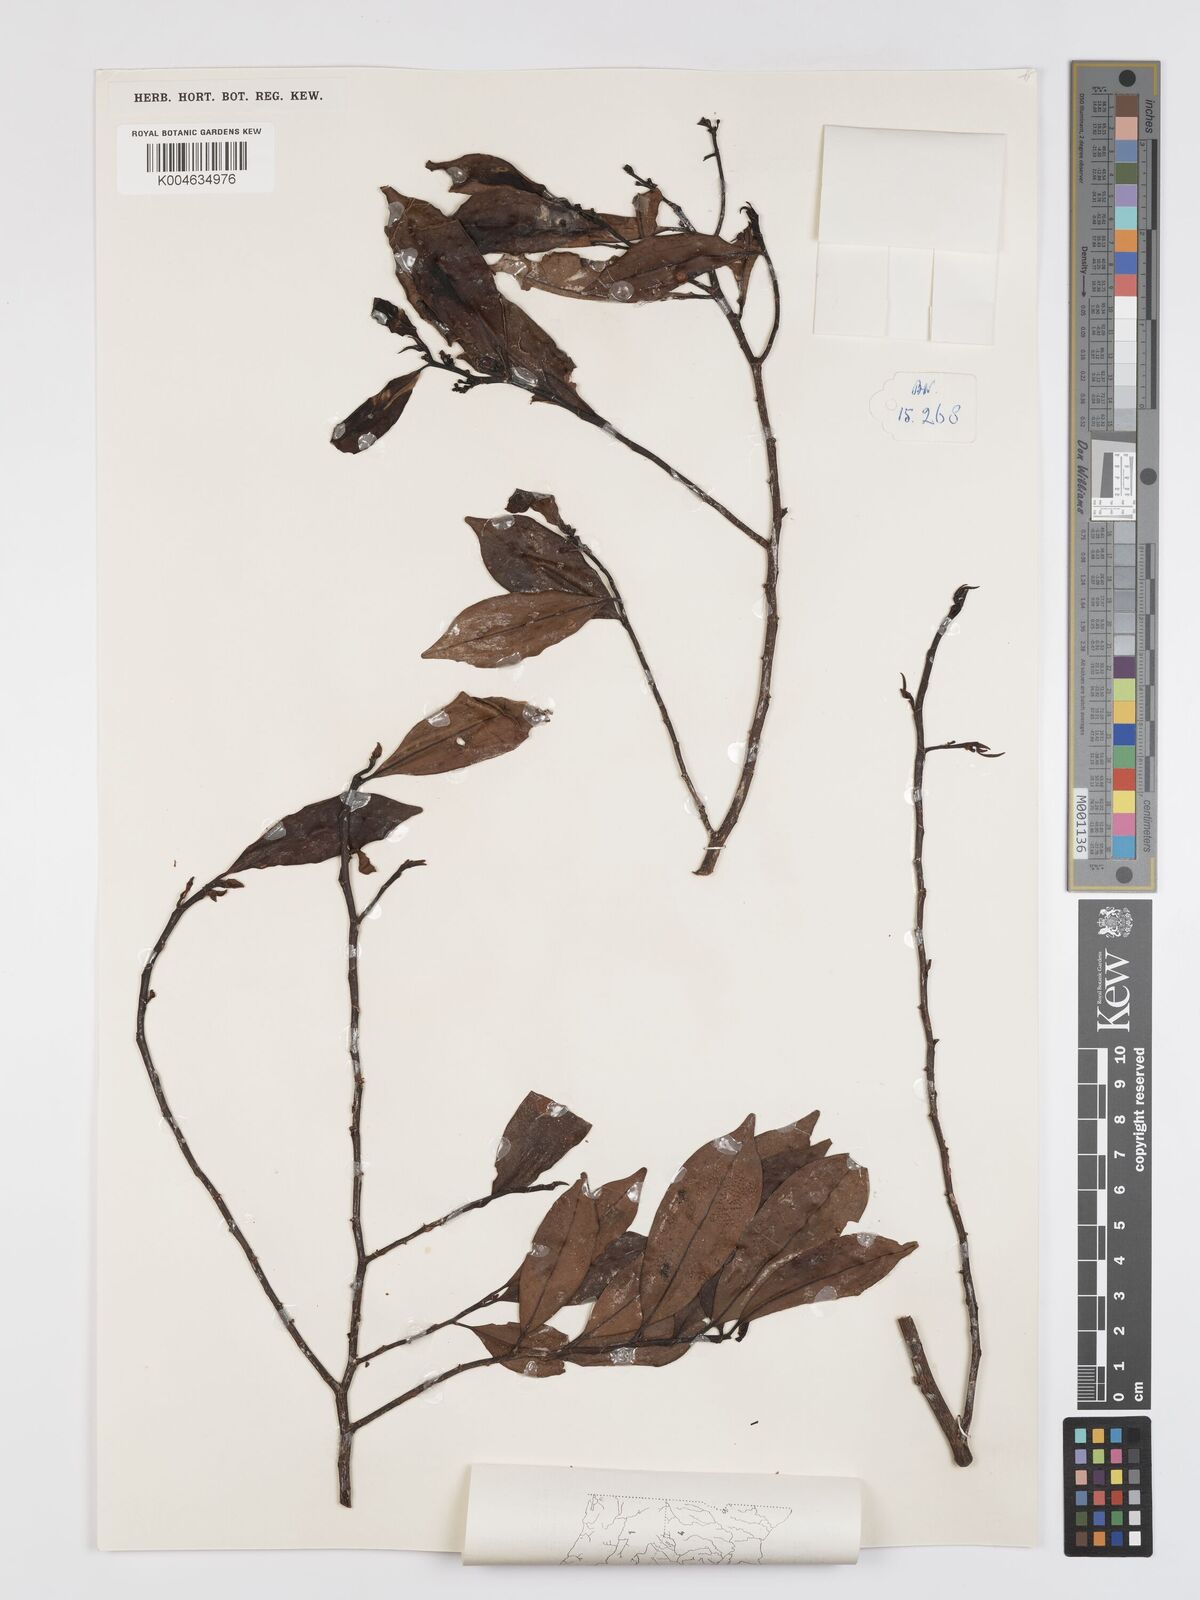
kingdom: Plantae
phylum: Tracheophyta
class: Magnoliopsida
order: Malpighiales
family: Erythroxylaceae
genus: Erythroxylum
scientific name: Erythroxylum ecarinatum
